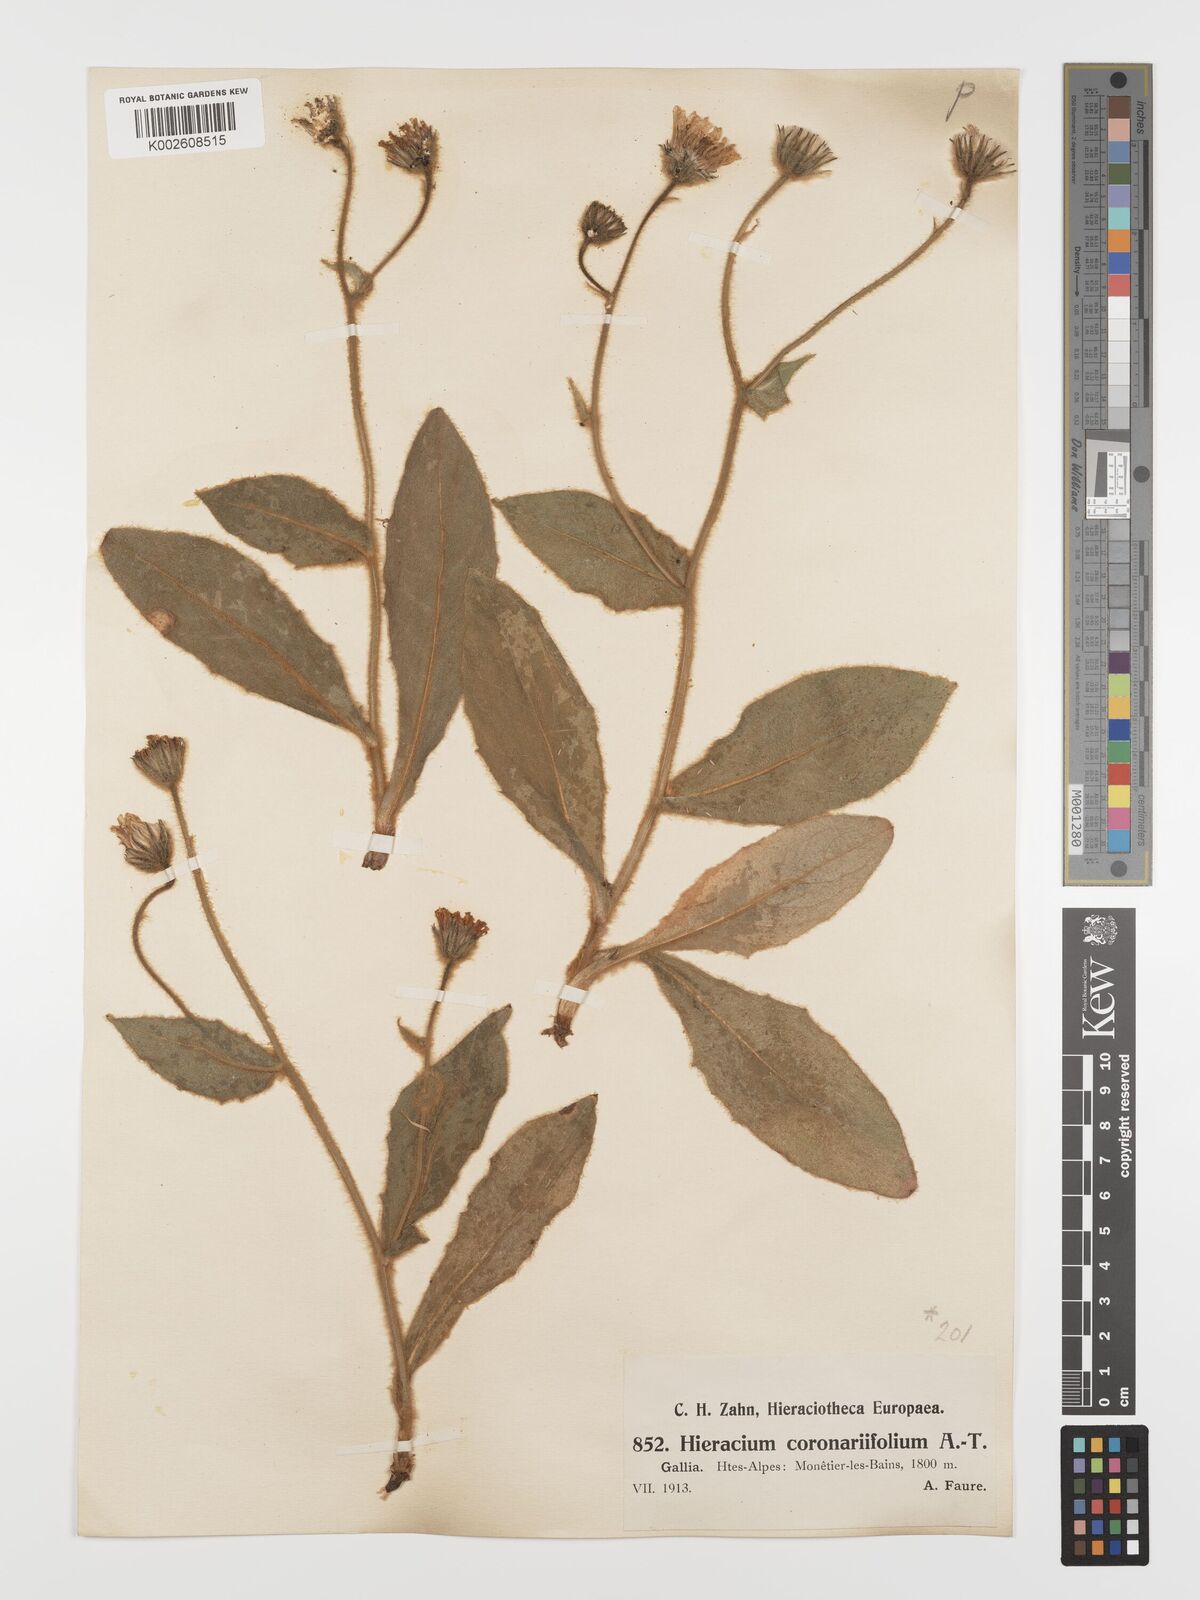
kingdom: Plantae
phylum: Tracheophyta
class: Magnoliopsida
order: Asterales
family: Asteraceae
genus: Hieracium
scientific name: Hieracium coronariifolium
